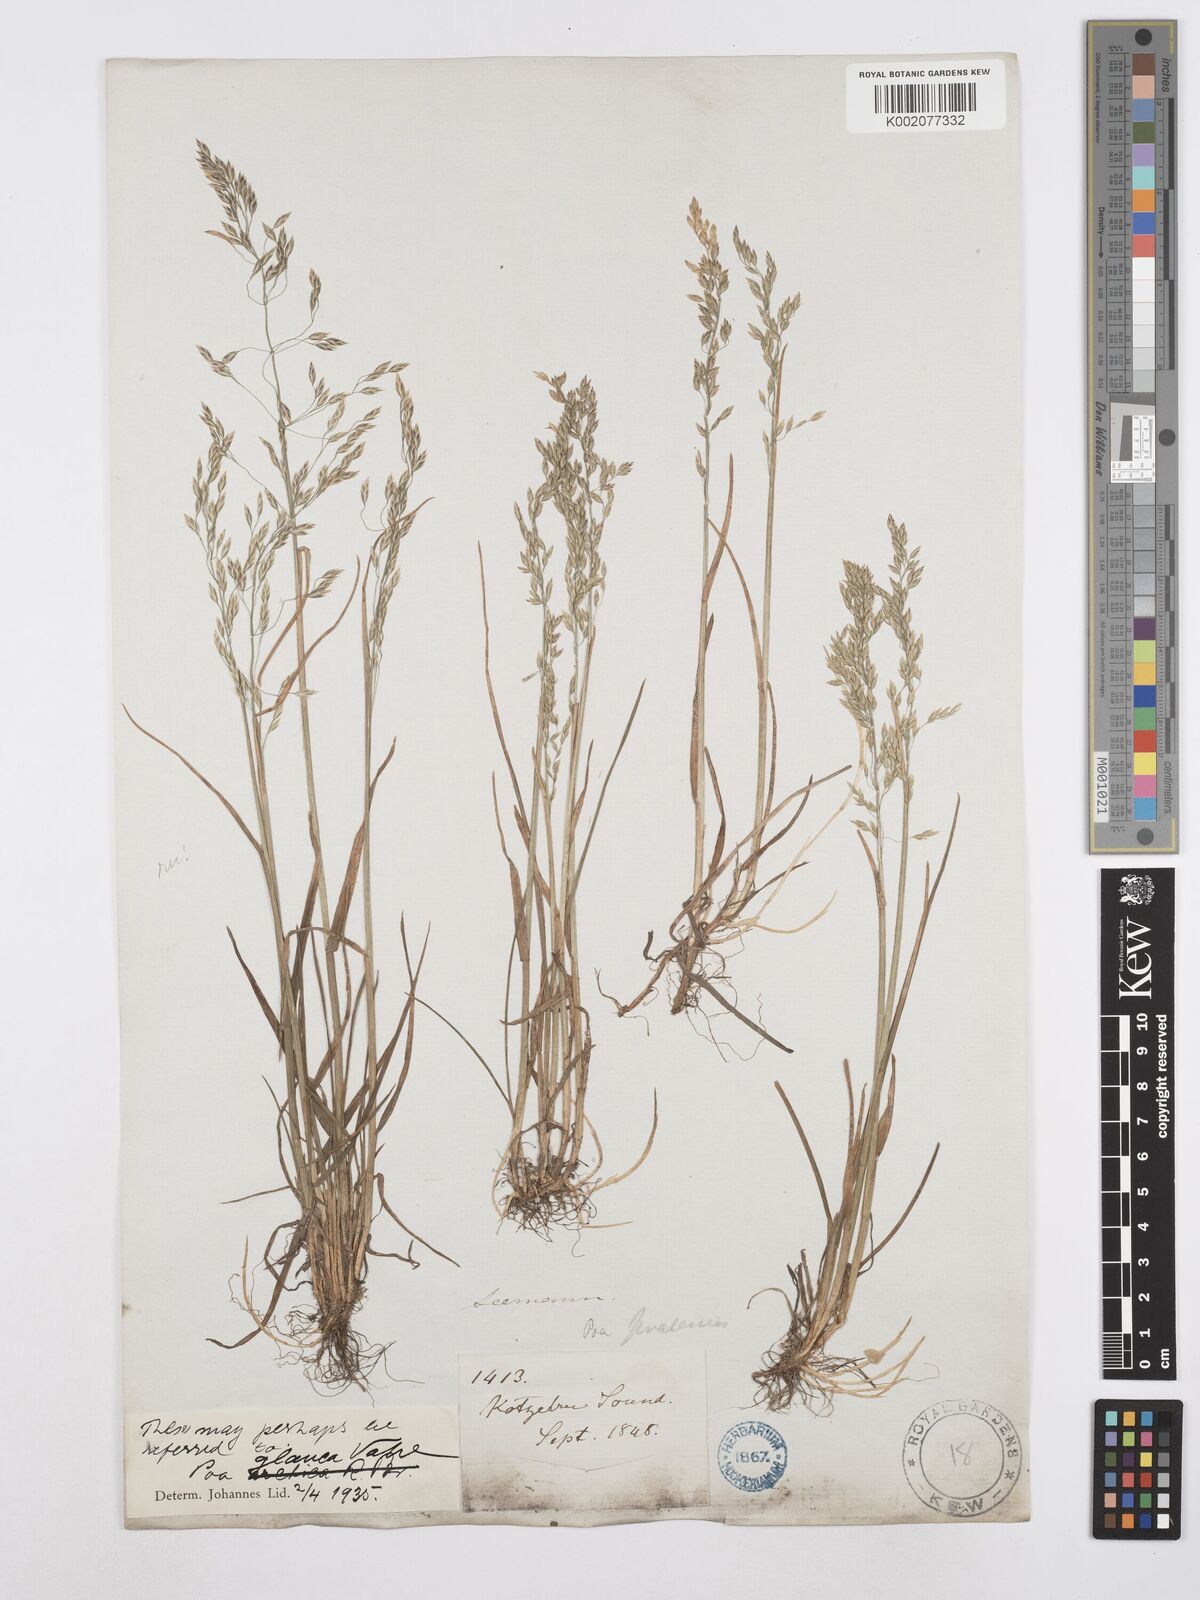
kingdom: Plantae
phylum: Tracheophyta
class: Liliopsida
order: Poales
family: Poaceae
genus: Poa
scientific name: Poa glauca
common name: Glaucous bluegrass
